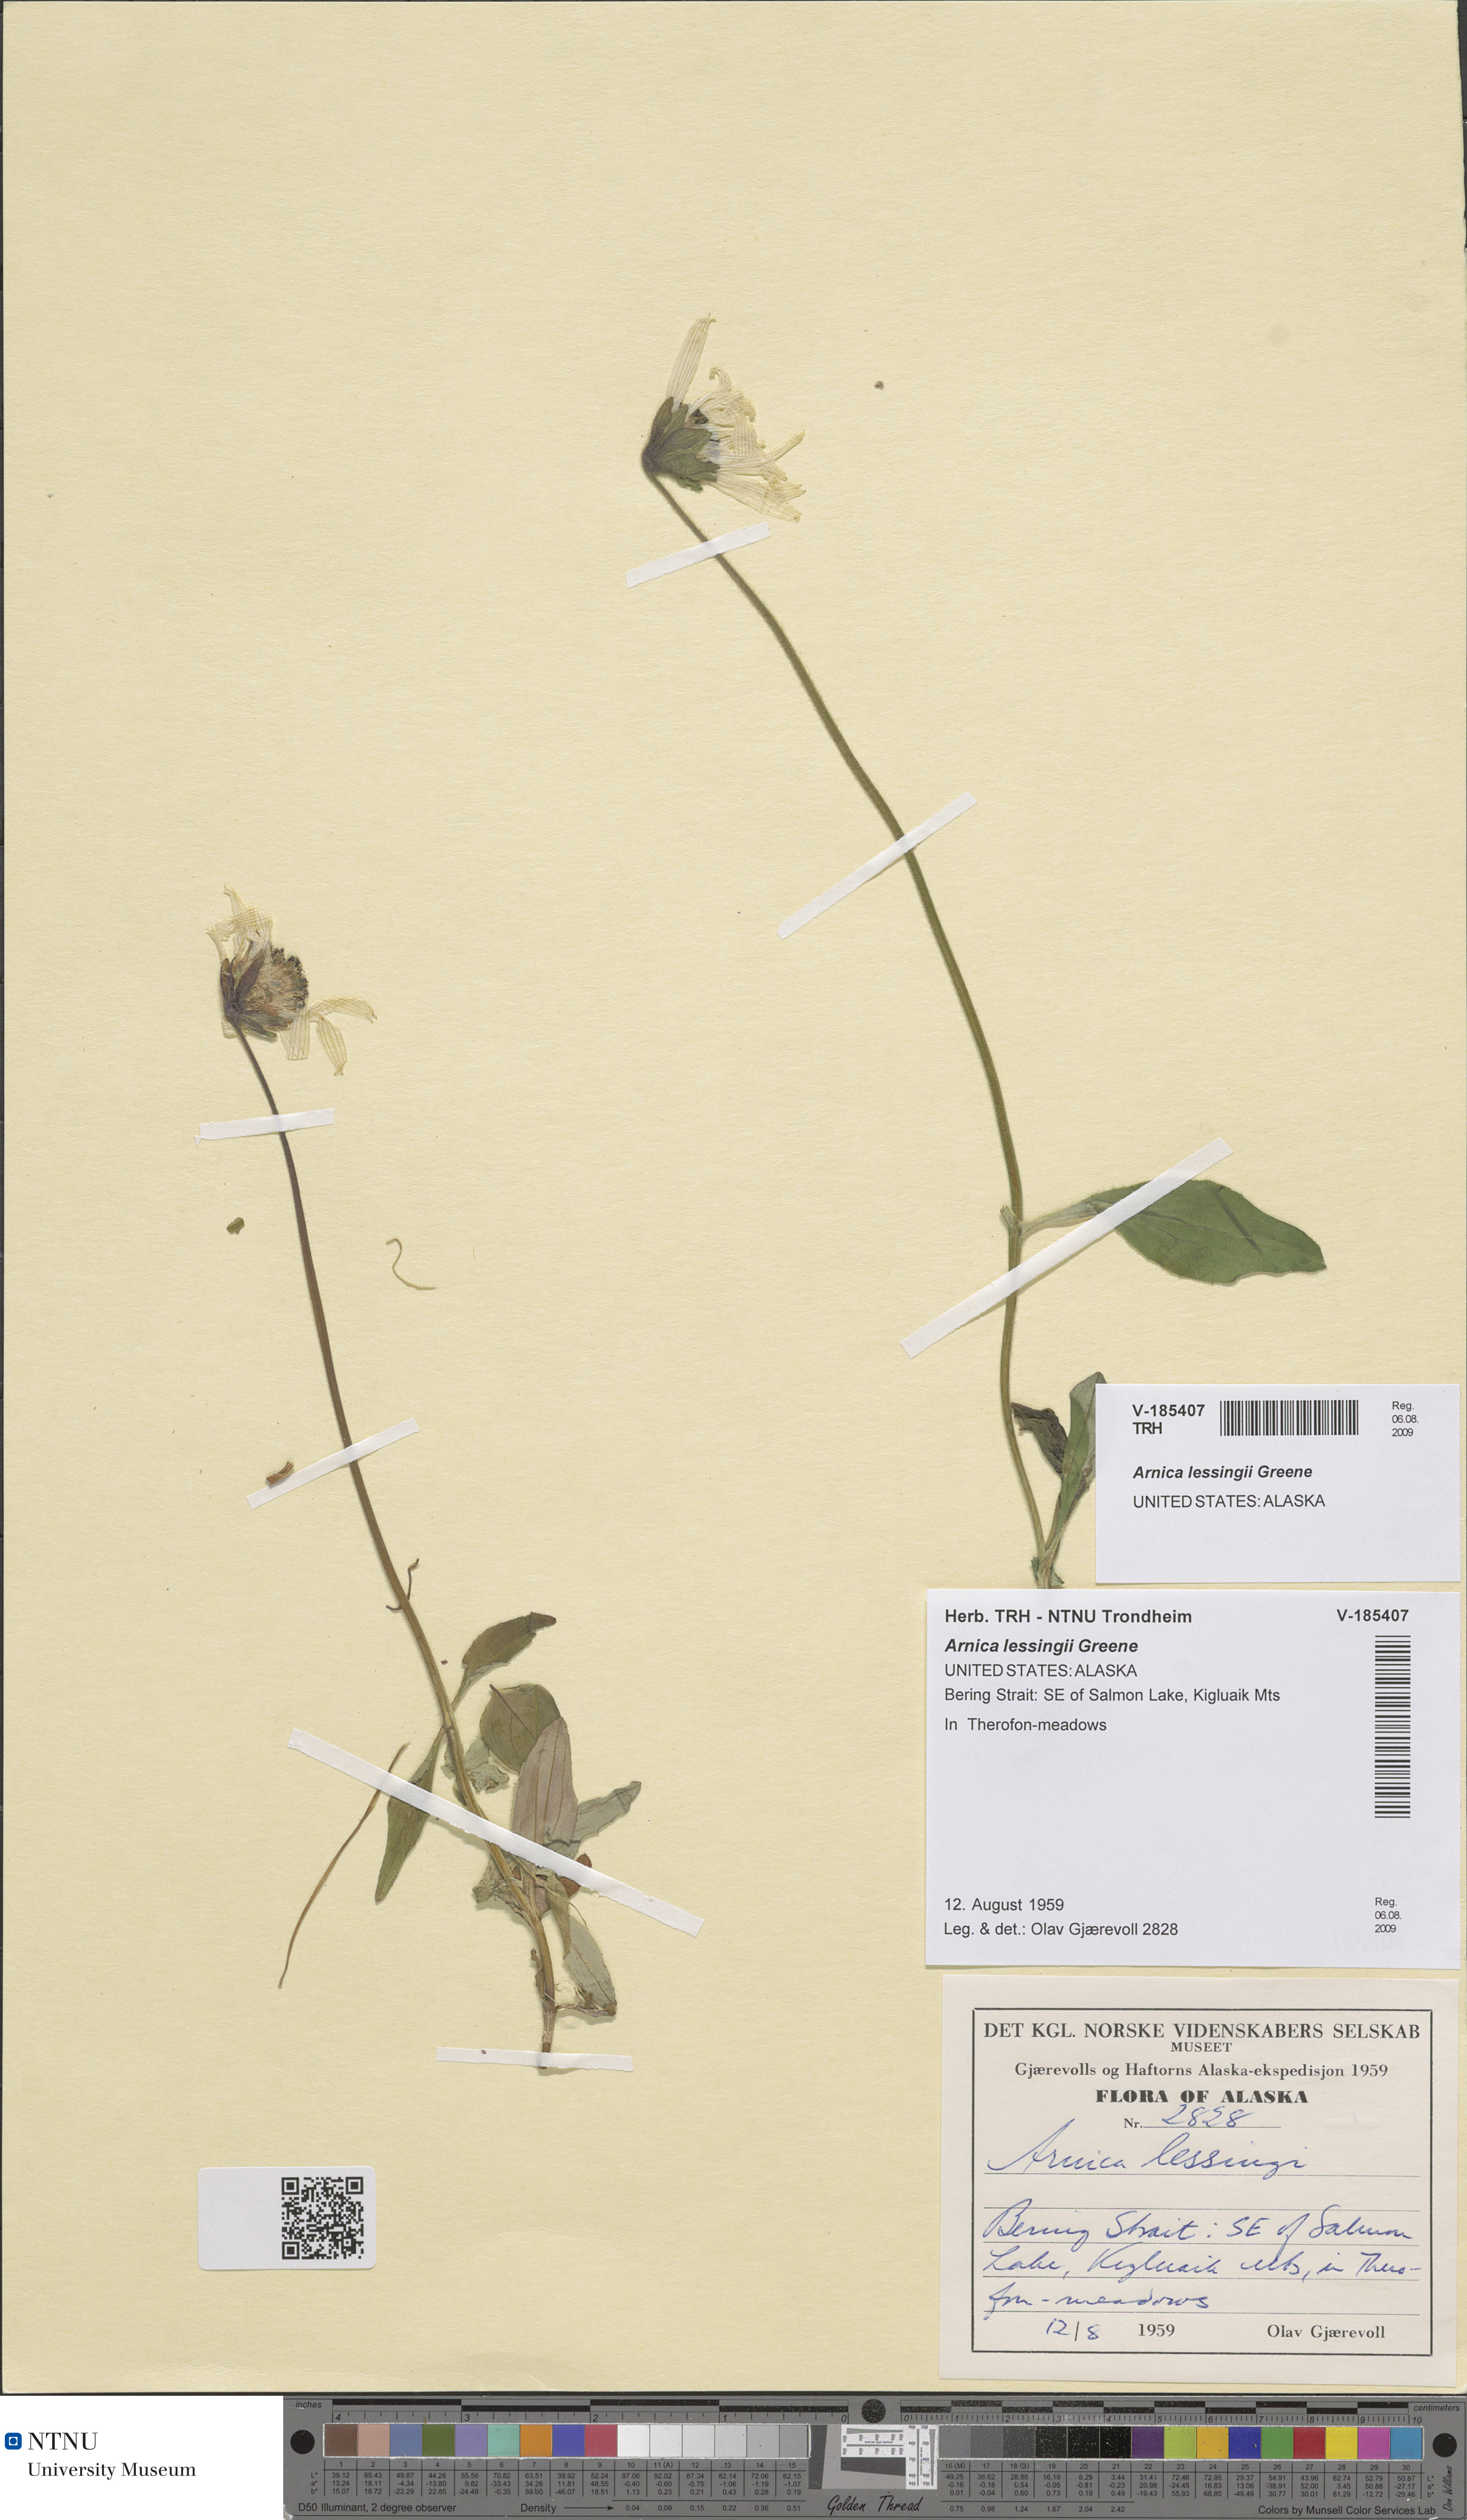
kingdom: Plantae
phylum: Tracheophyta
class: Magnoliopsida
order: Asterales
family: Asteraceae
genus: Arnica
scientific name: Arnica lessingii
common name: Nodding arnica
